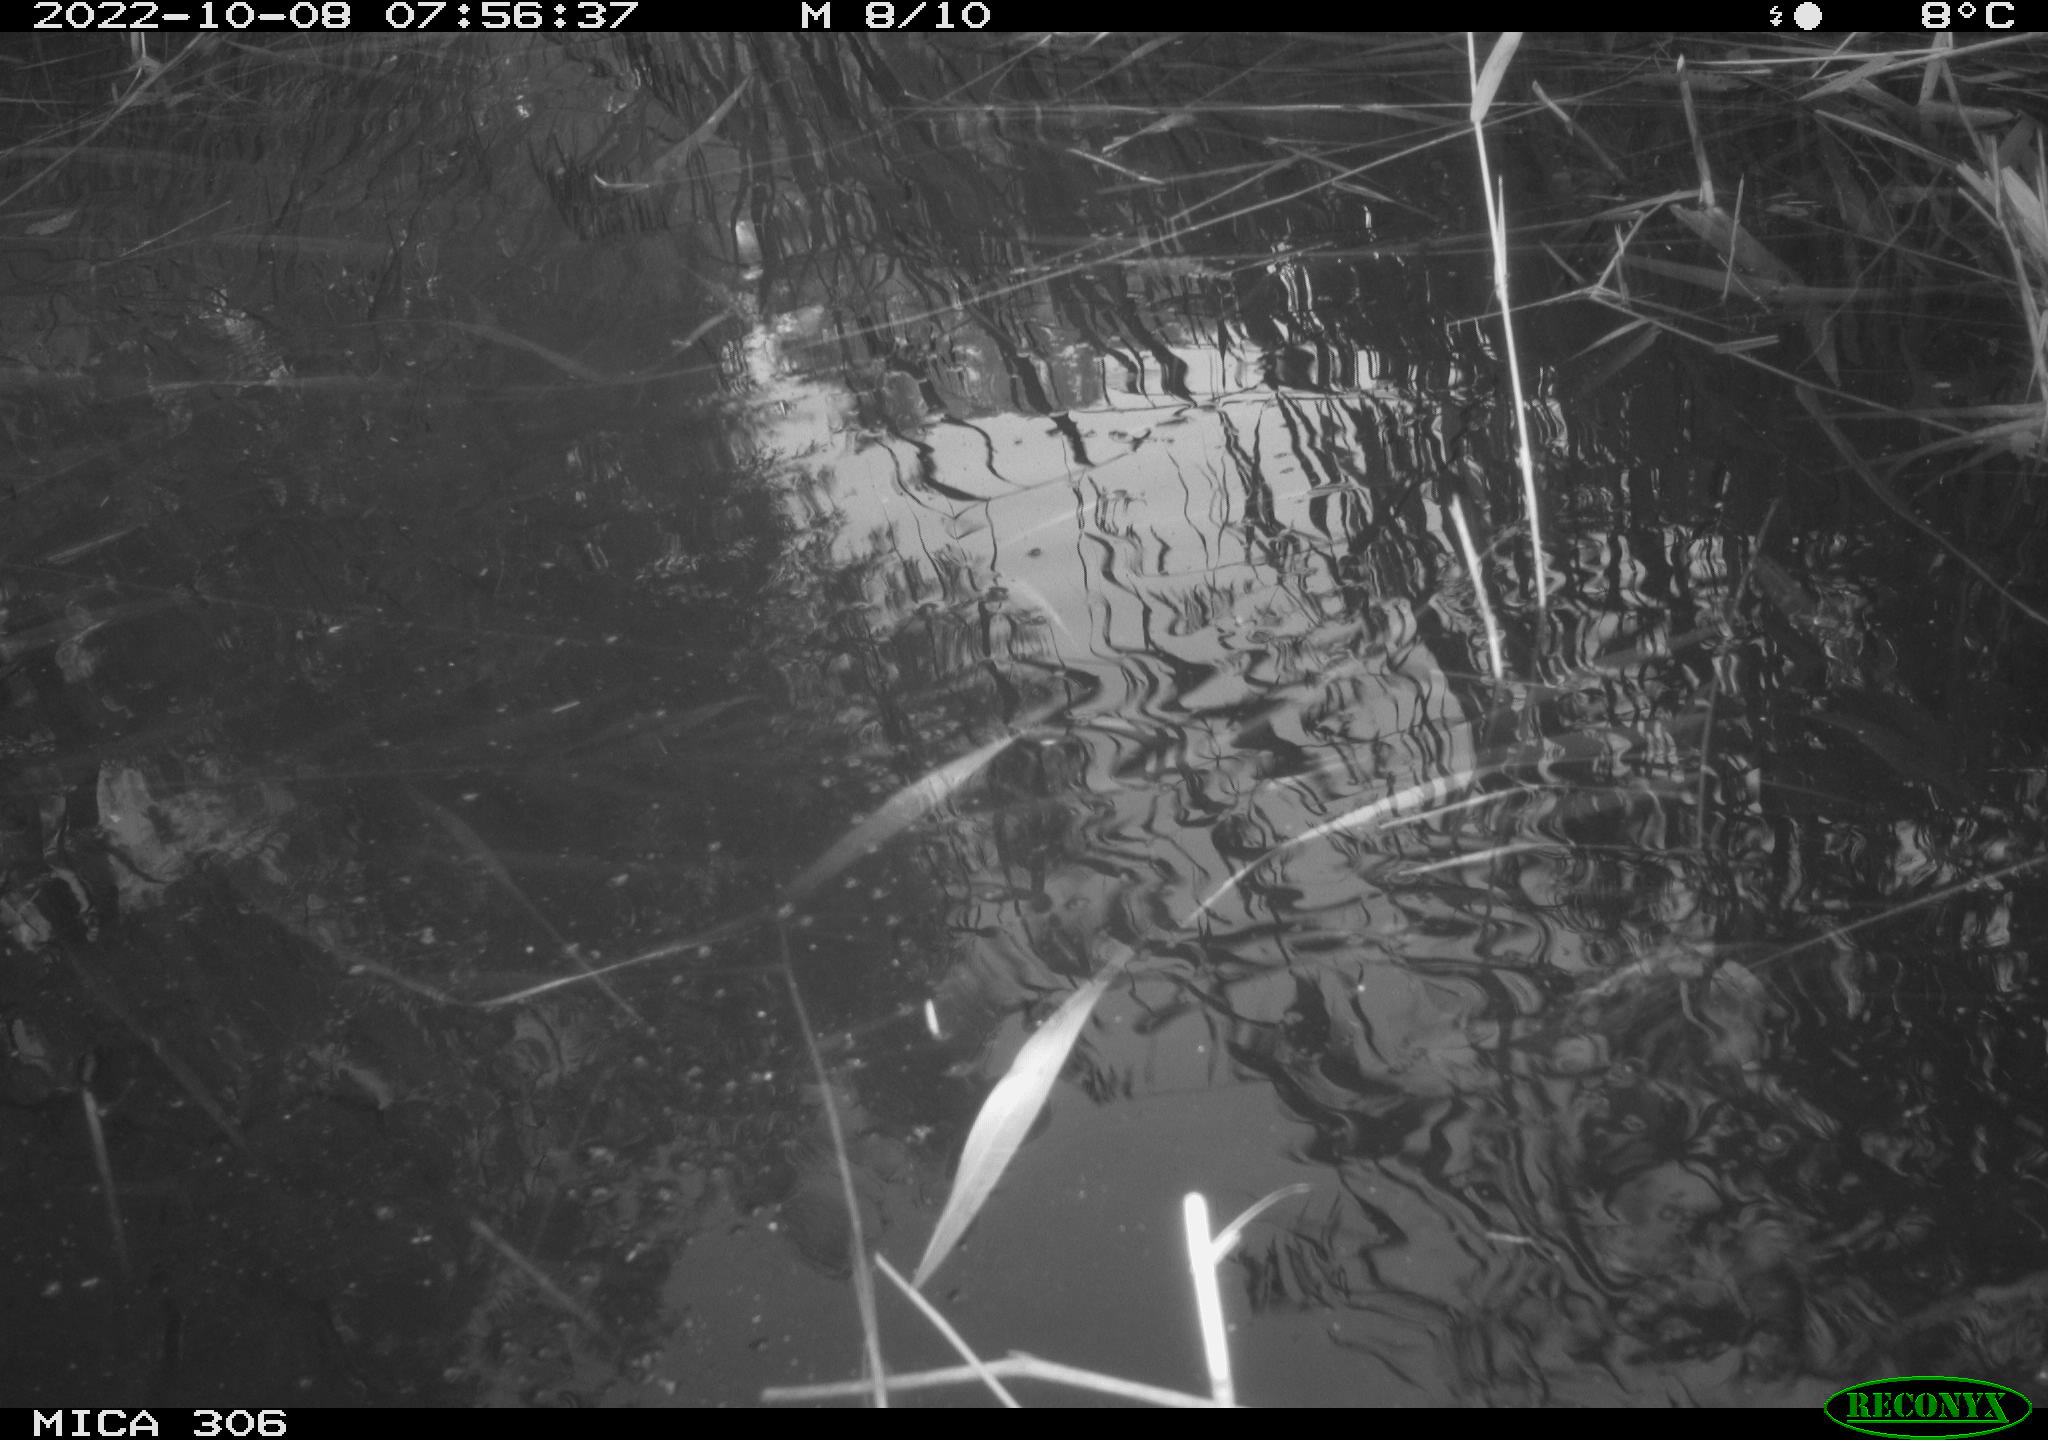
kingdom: Animalia
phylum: Chordata
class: Aves
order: Gruiformes
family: Rallidae
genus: Gallinula
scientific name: Gallinula chloropus
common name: Common moorhen
